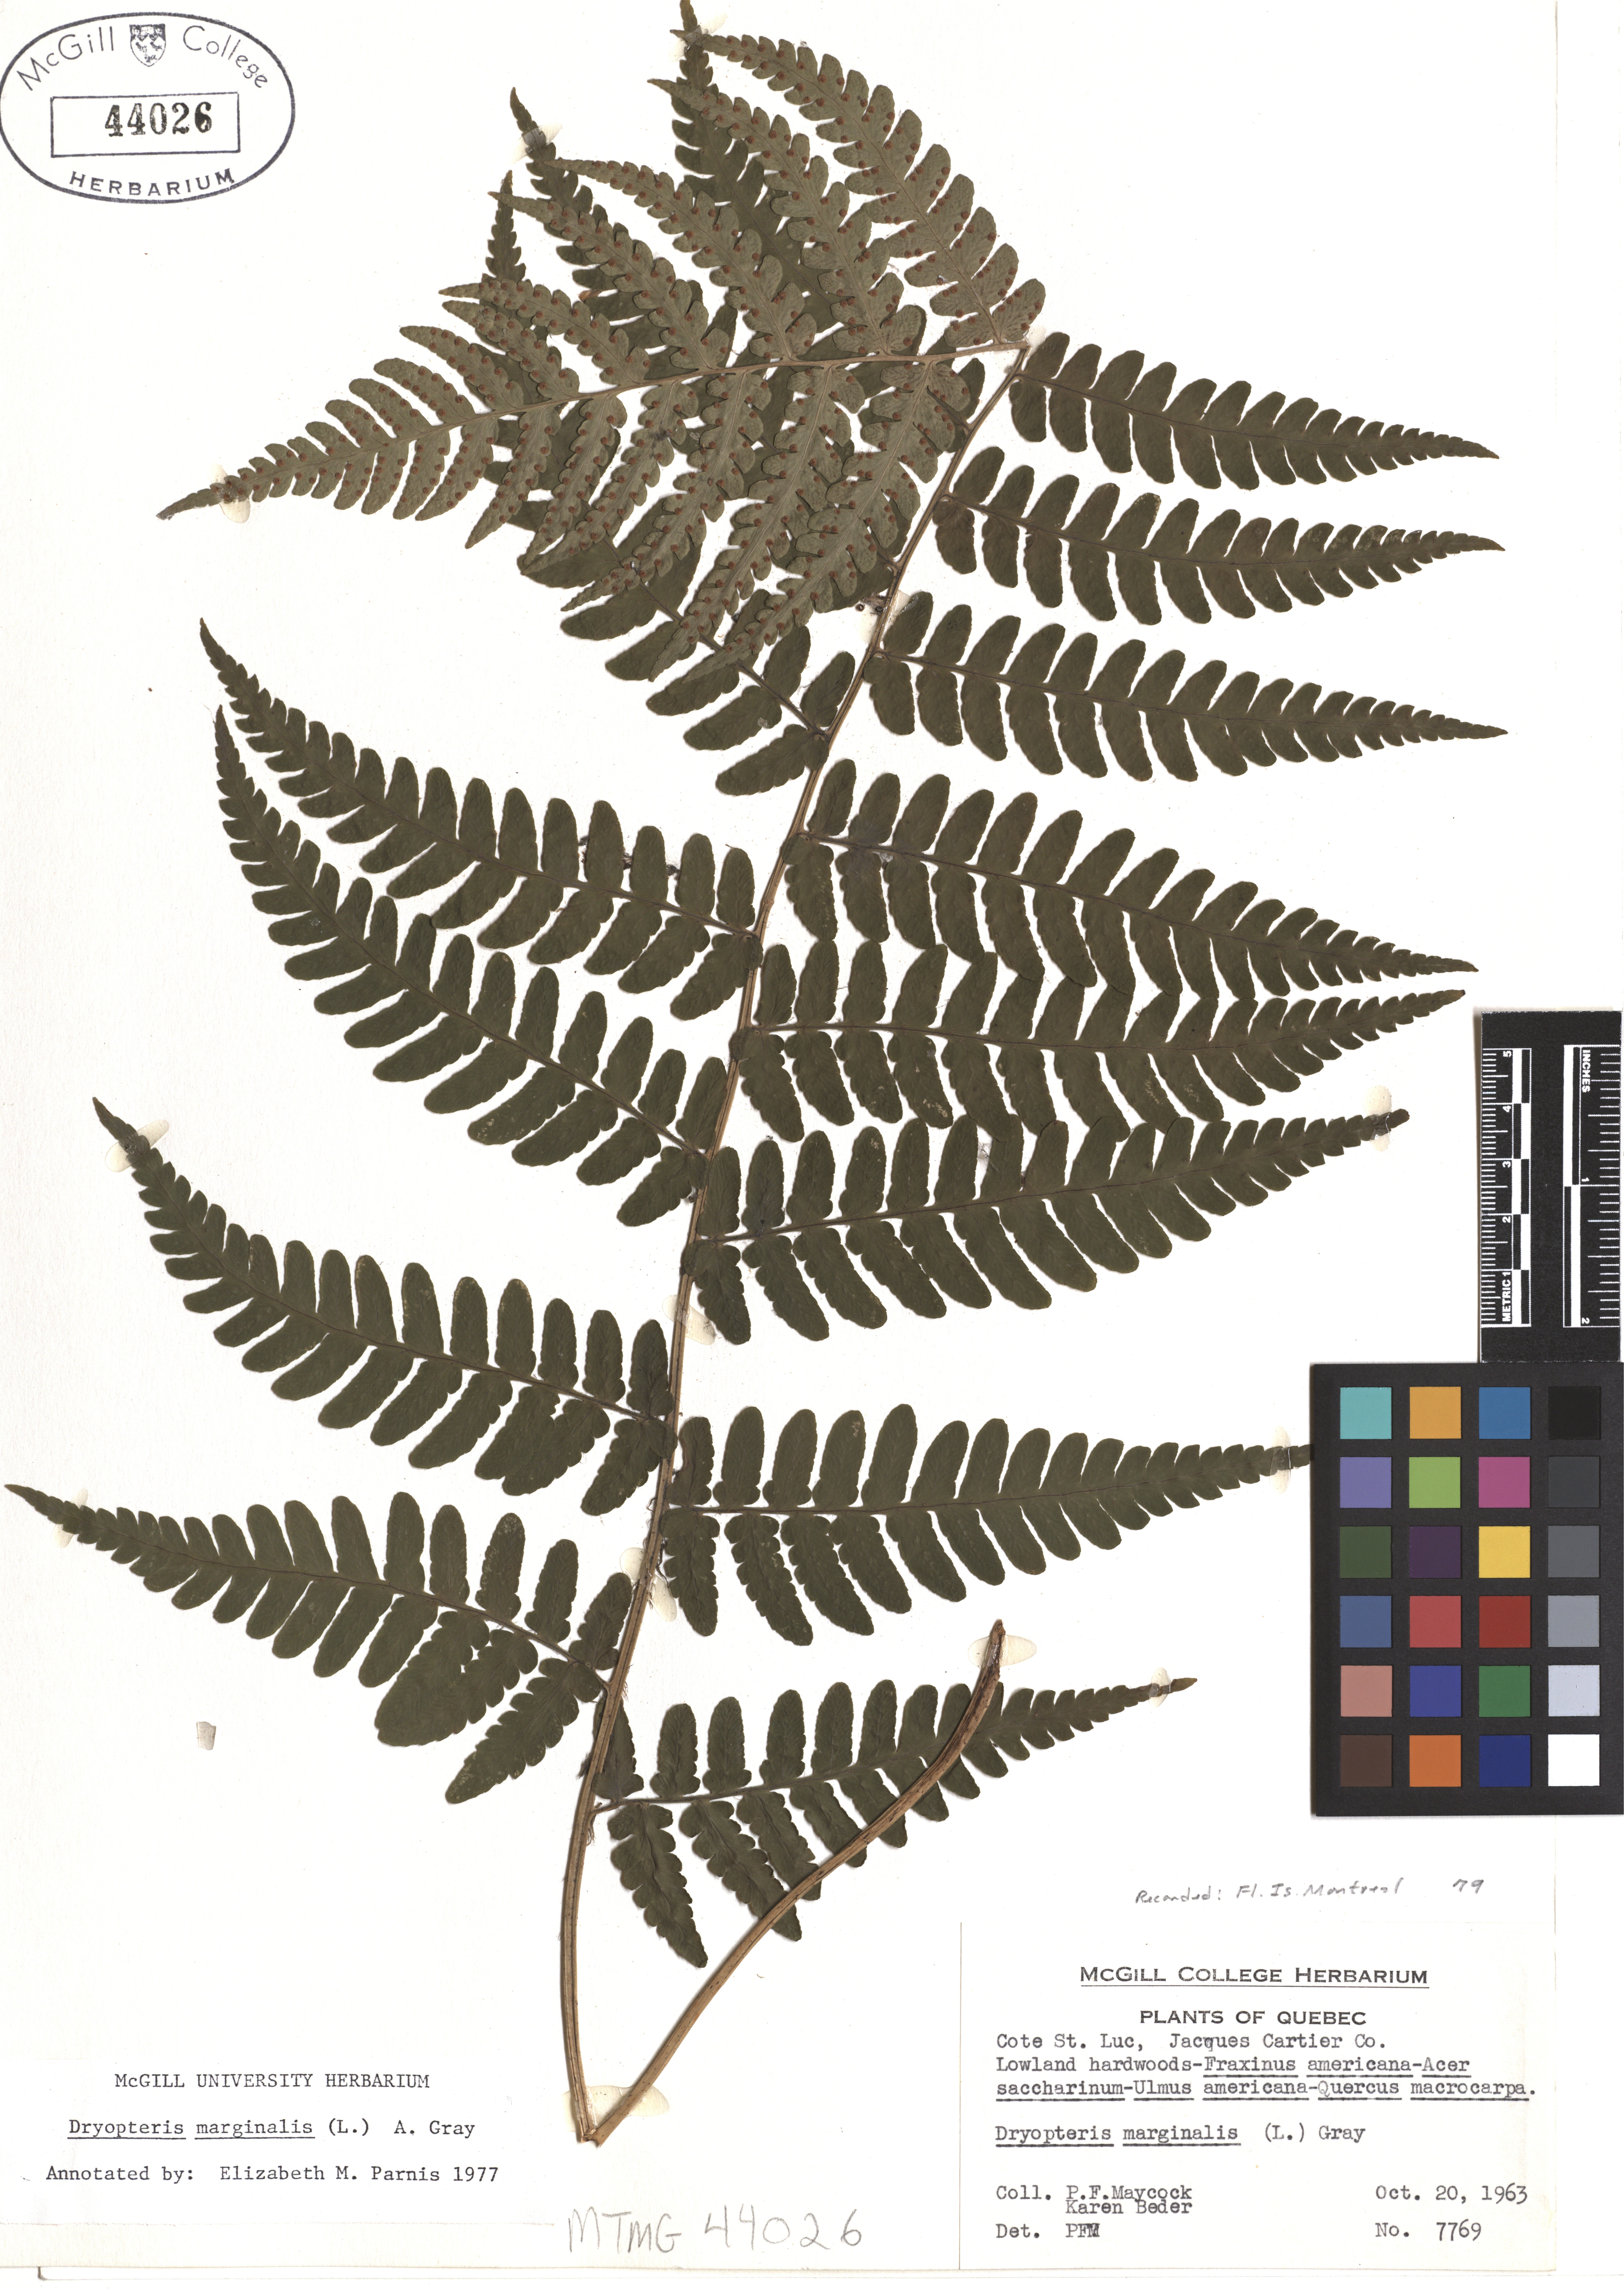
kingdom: Plantae
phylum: Tracheophyta
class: Polypodiopsida
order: Polypodiales
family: Dryopteridaceae
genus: Dryopteris
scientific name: Dryopteris marginalis
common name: Marginal wood fern
